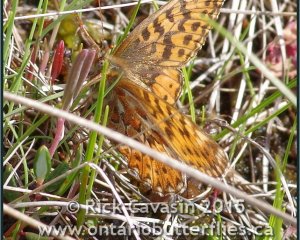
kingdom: Animalia
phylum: Arthropoda
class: Insecta
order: Lepidoptera
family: Nymphalidae
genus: Boloria
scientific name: Boloria freija
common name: Freija Fritillary
